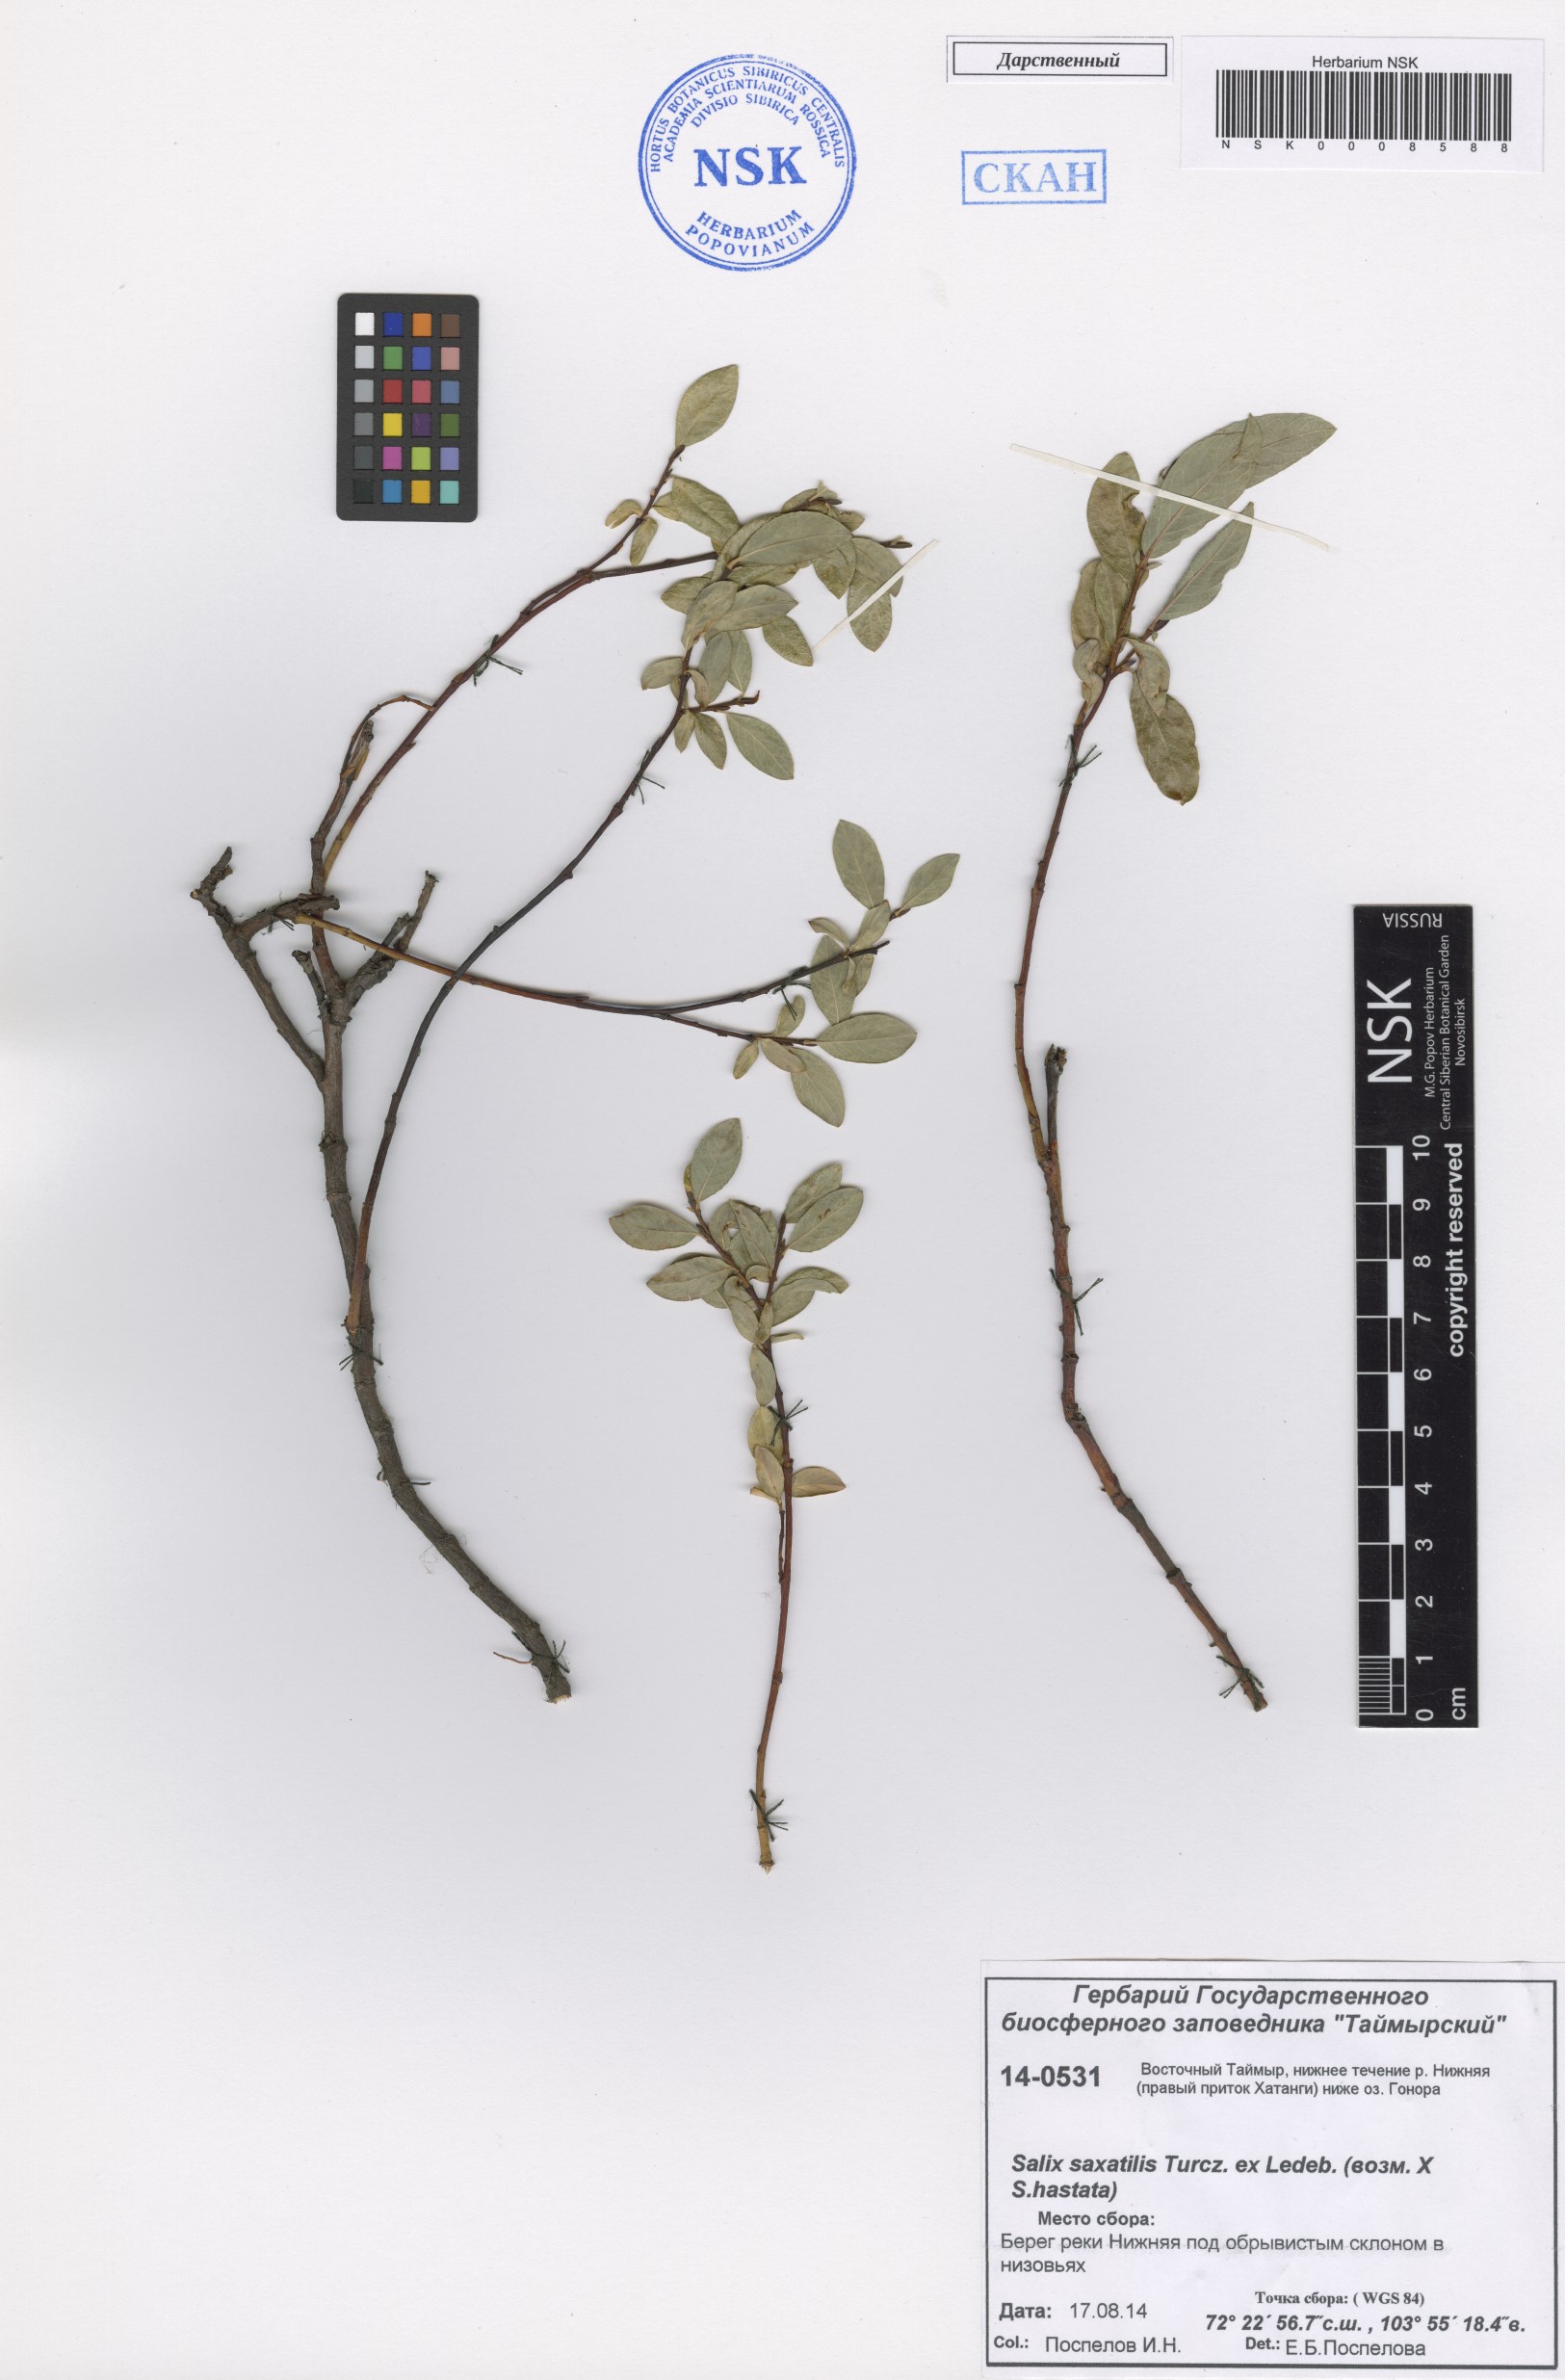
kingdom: Plantae
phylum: Tracheophyta
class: Magnoliopsida
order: Malpighiales
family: Salicaceae
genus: Salix
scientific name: Salix saxatilis
